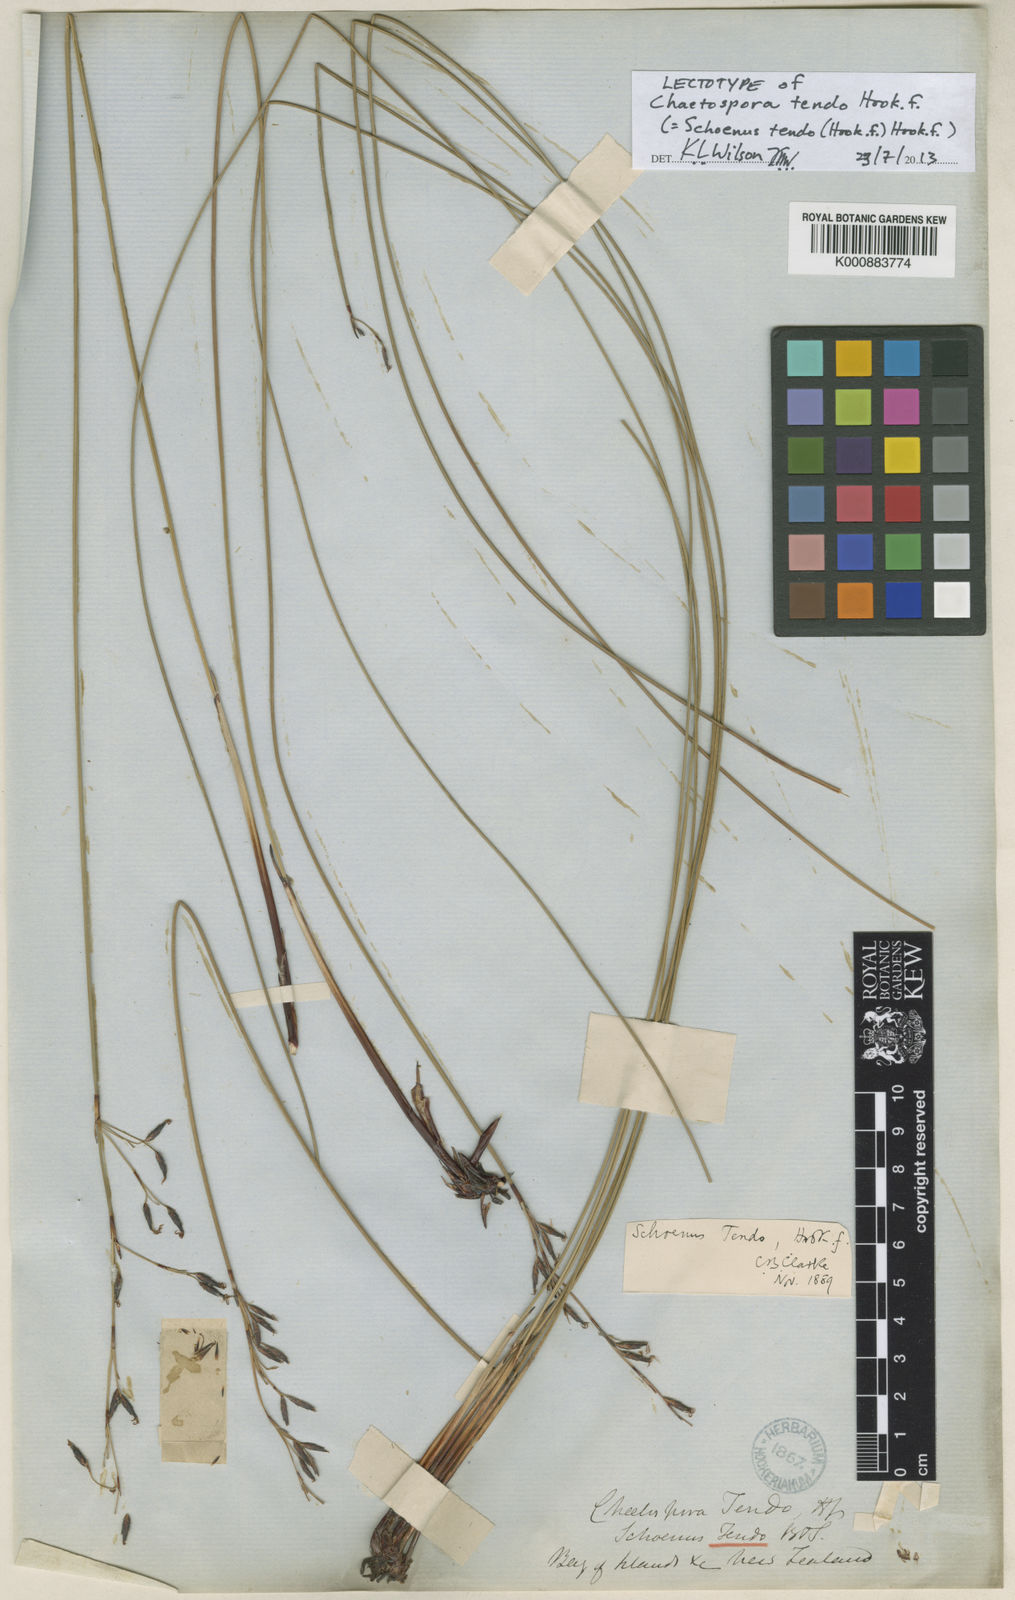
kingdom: Plantae
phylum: Tracheophyta
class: Liliopsida
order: Poales
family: Cyperaceae
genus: Schoenus
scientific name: Schoenus tendo
